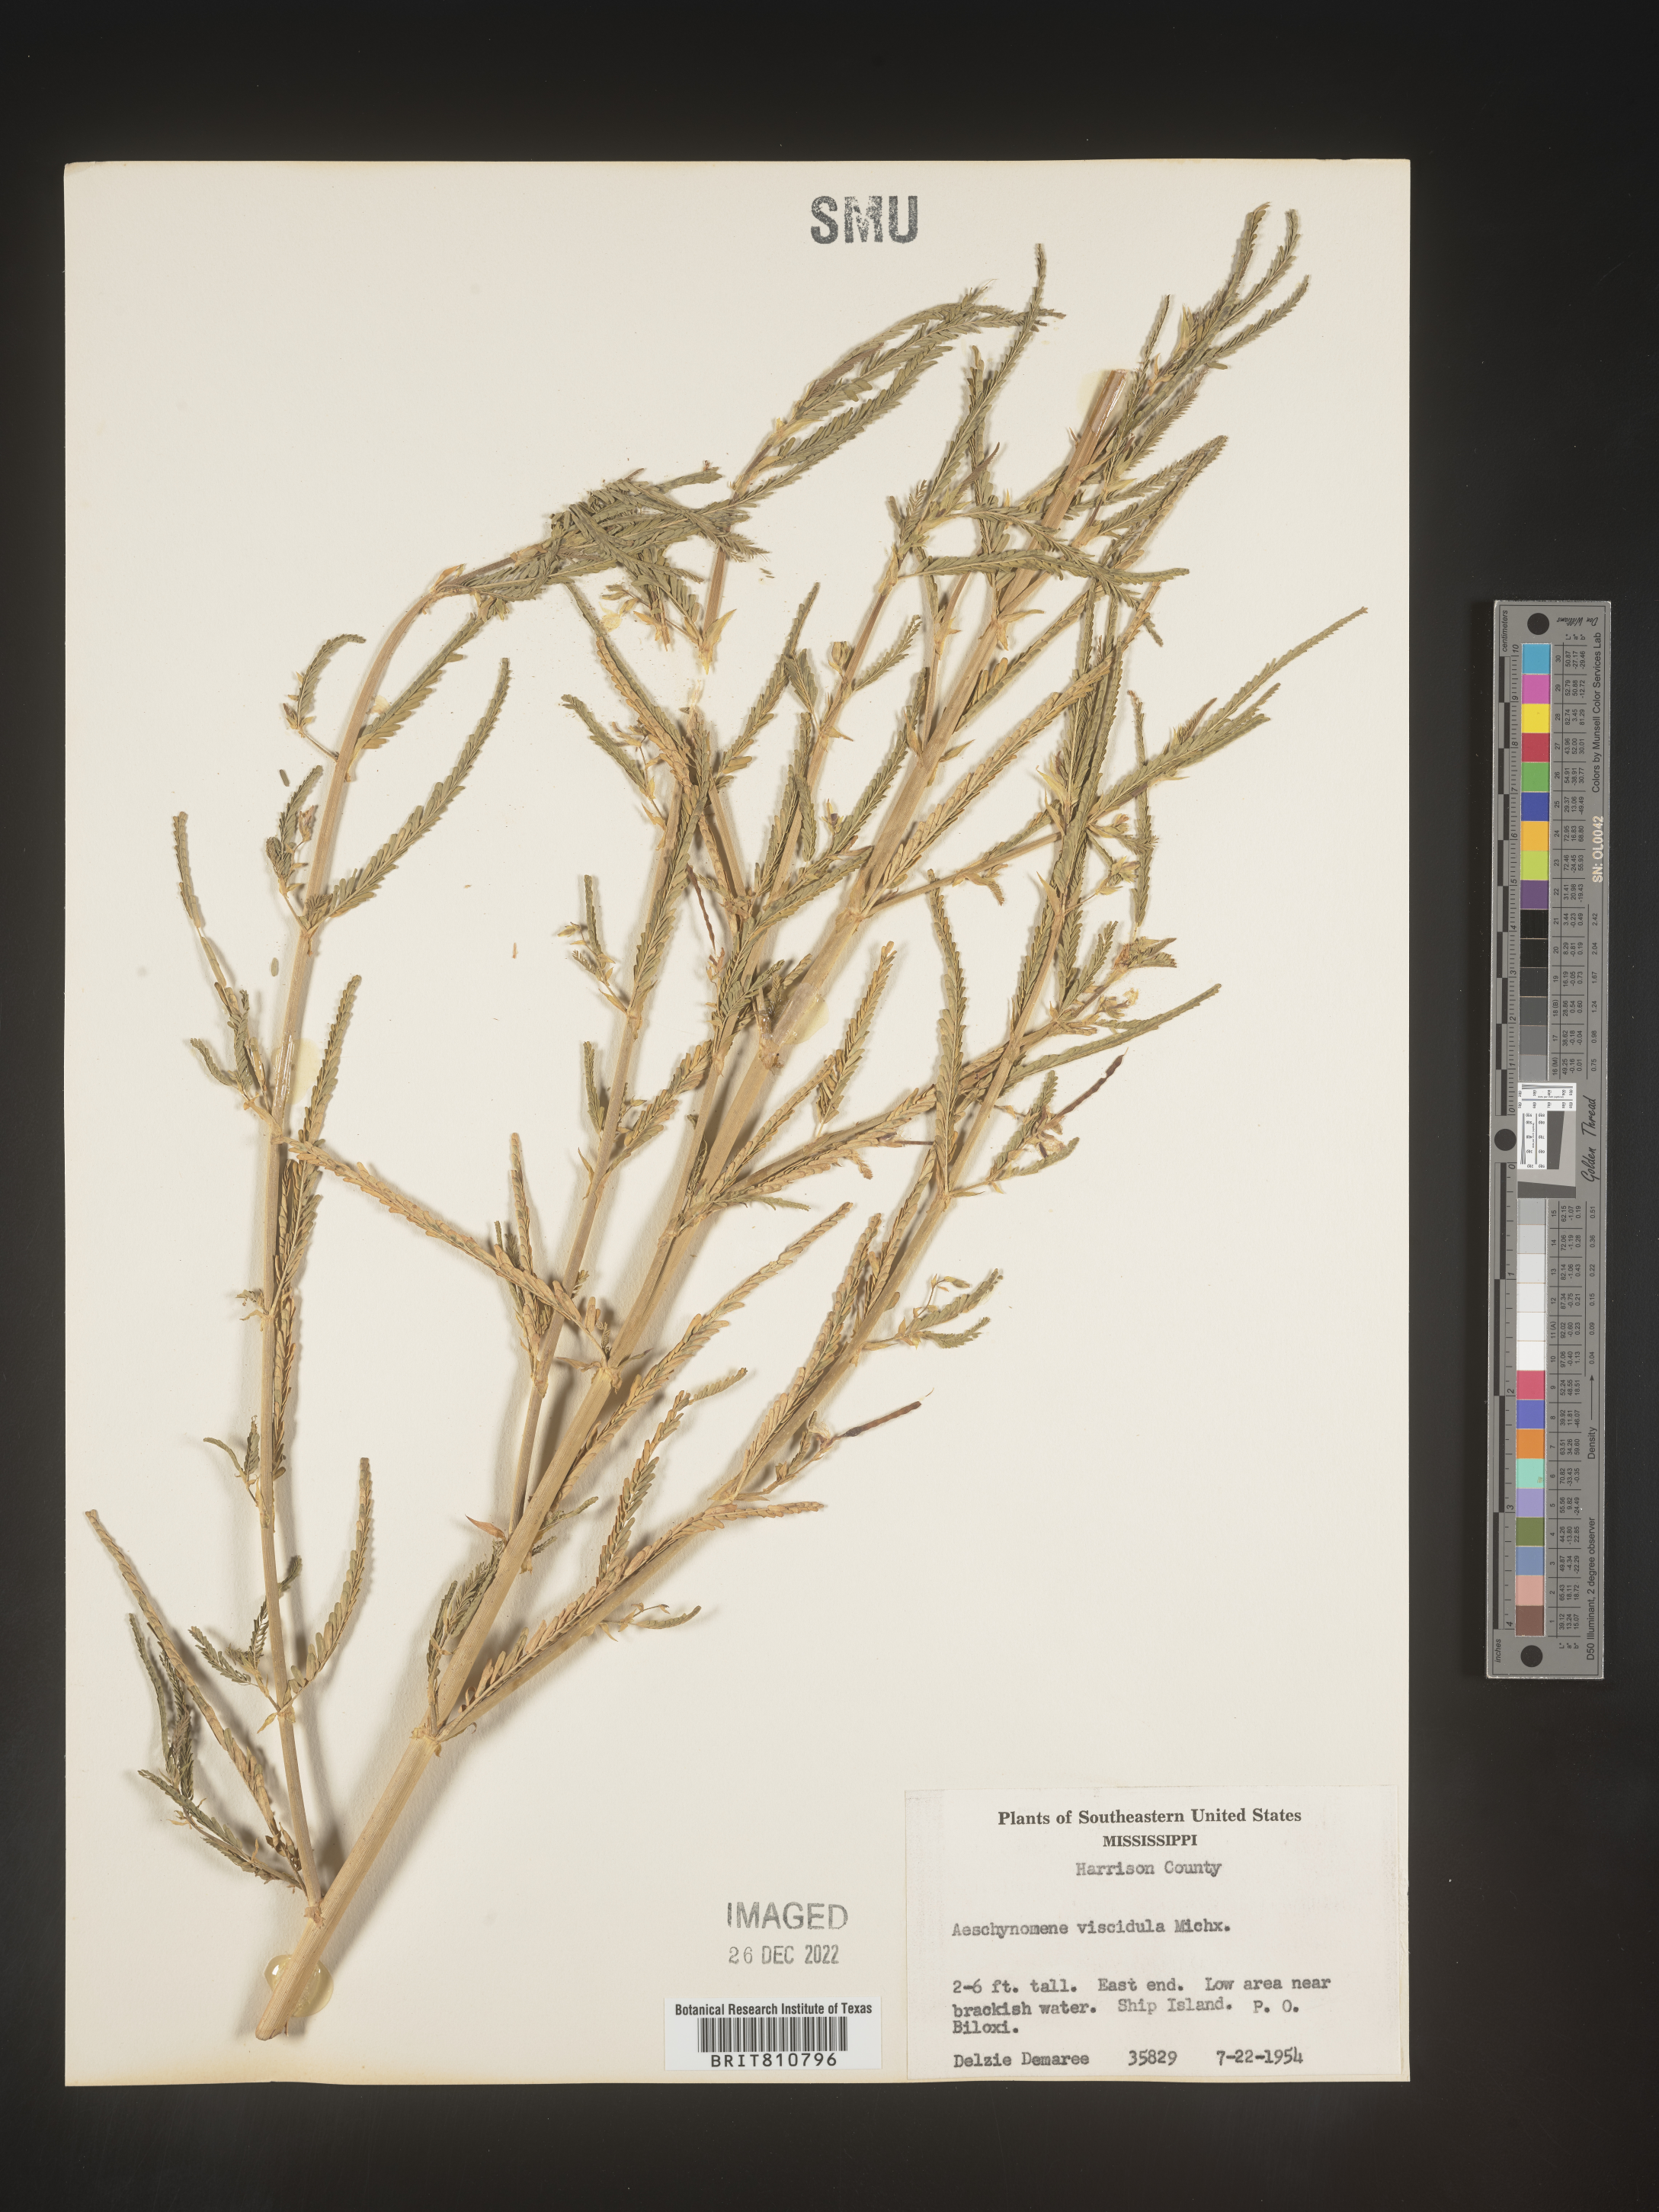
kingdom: Plantae
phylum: Tracheophyta
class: Magnoliopsida
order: Fabales
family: Fabaceae
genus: Aeschynomene
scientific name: Aeschynomene
